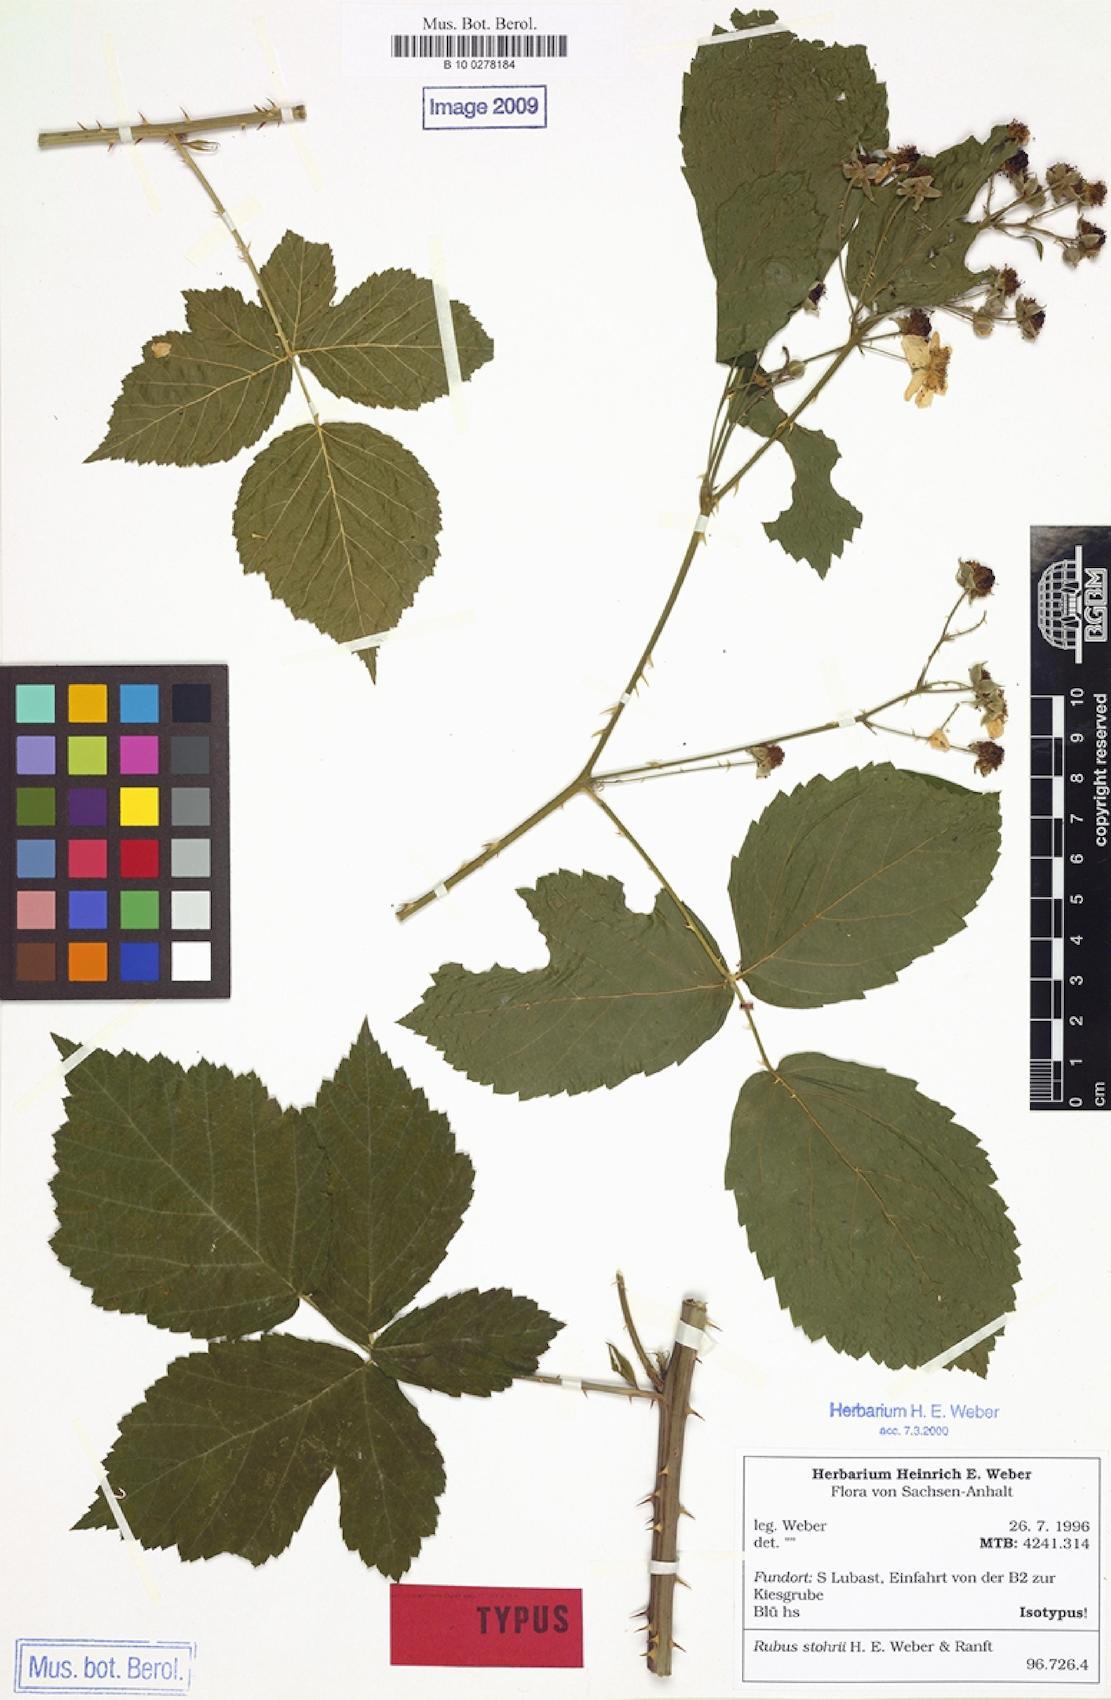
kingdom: Plantae
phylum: Tracheophyta
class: Magnoliopsida
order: Rosales
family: Rosaceae
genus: Rubus
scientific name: Rubus stohrii
